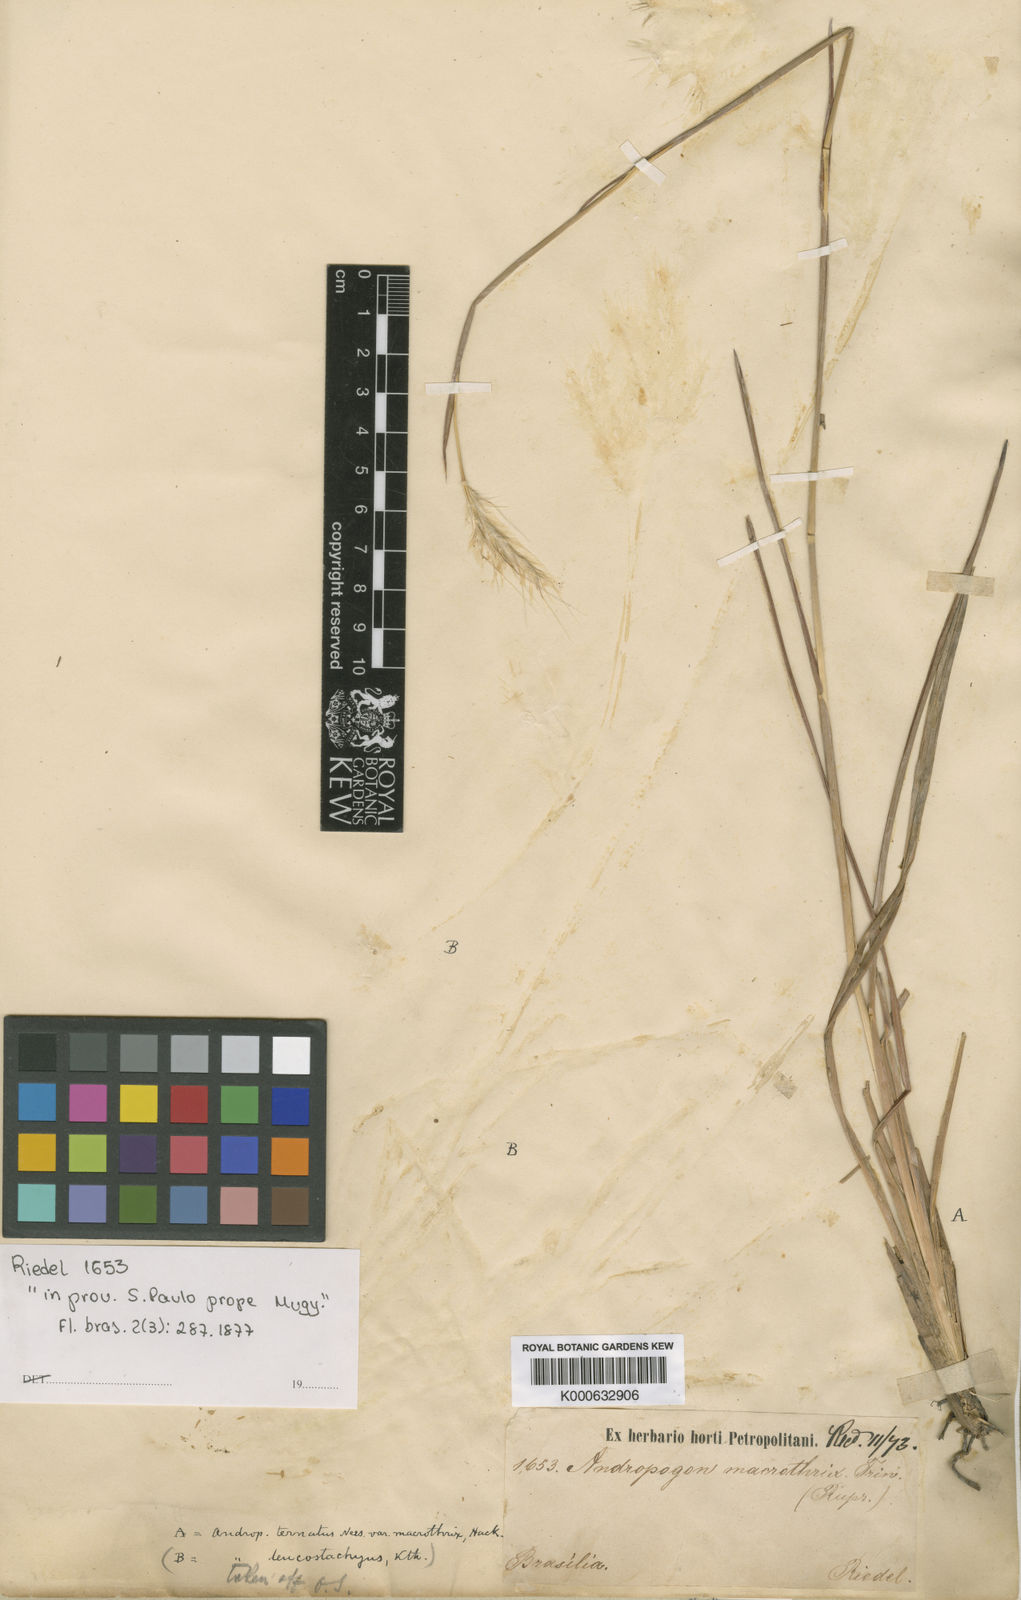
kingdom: Plantae
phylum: Tracheophyta
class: Liliopsida
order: Poales
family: Poaceae
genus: Andropogon
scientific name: Andropogon macrothrix
